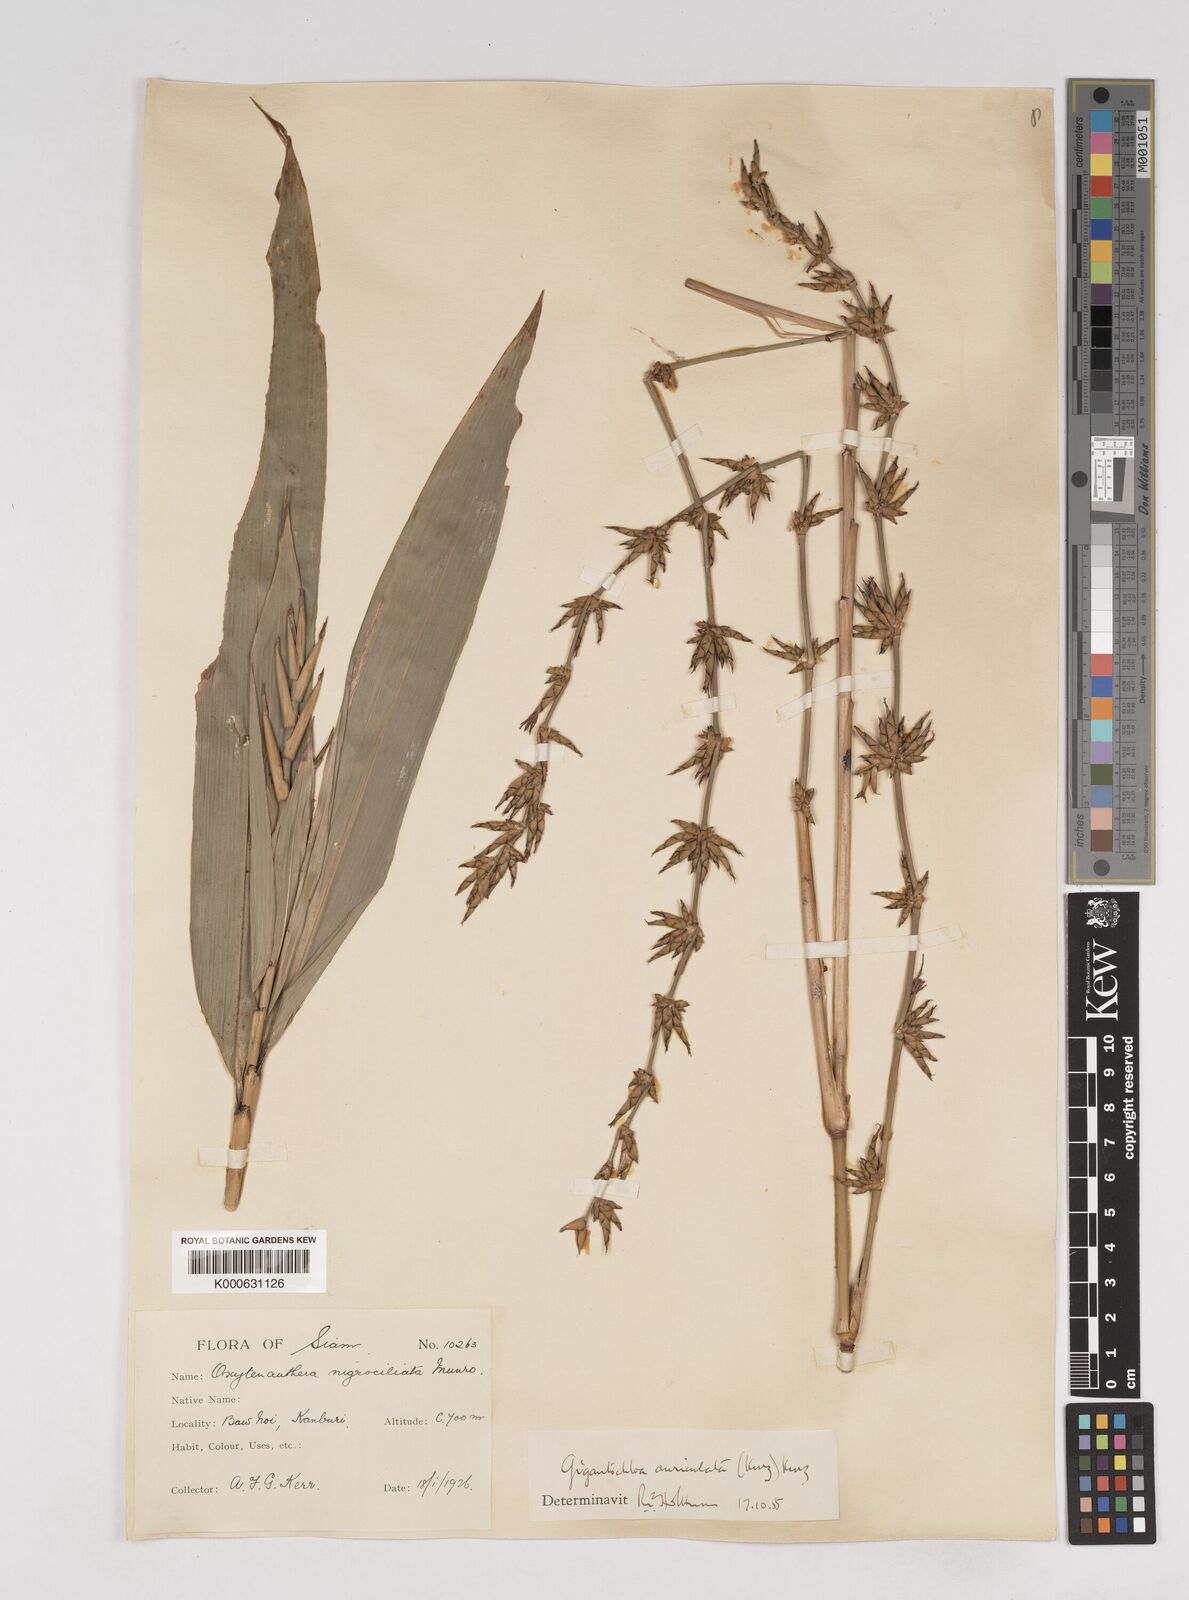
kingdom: Plantae
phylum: Tracheophyta
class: Liliopsida
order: Poales
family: Poaceae
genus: Gigantochloa
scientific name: Gigantochloa nigrociliata
